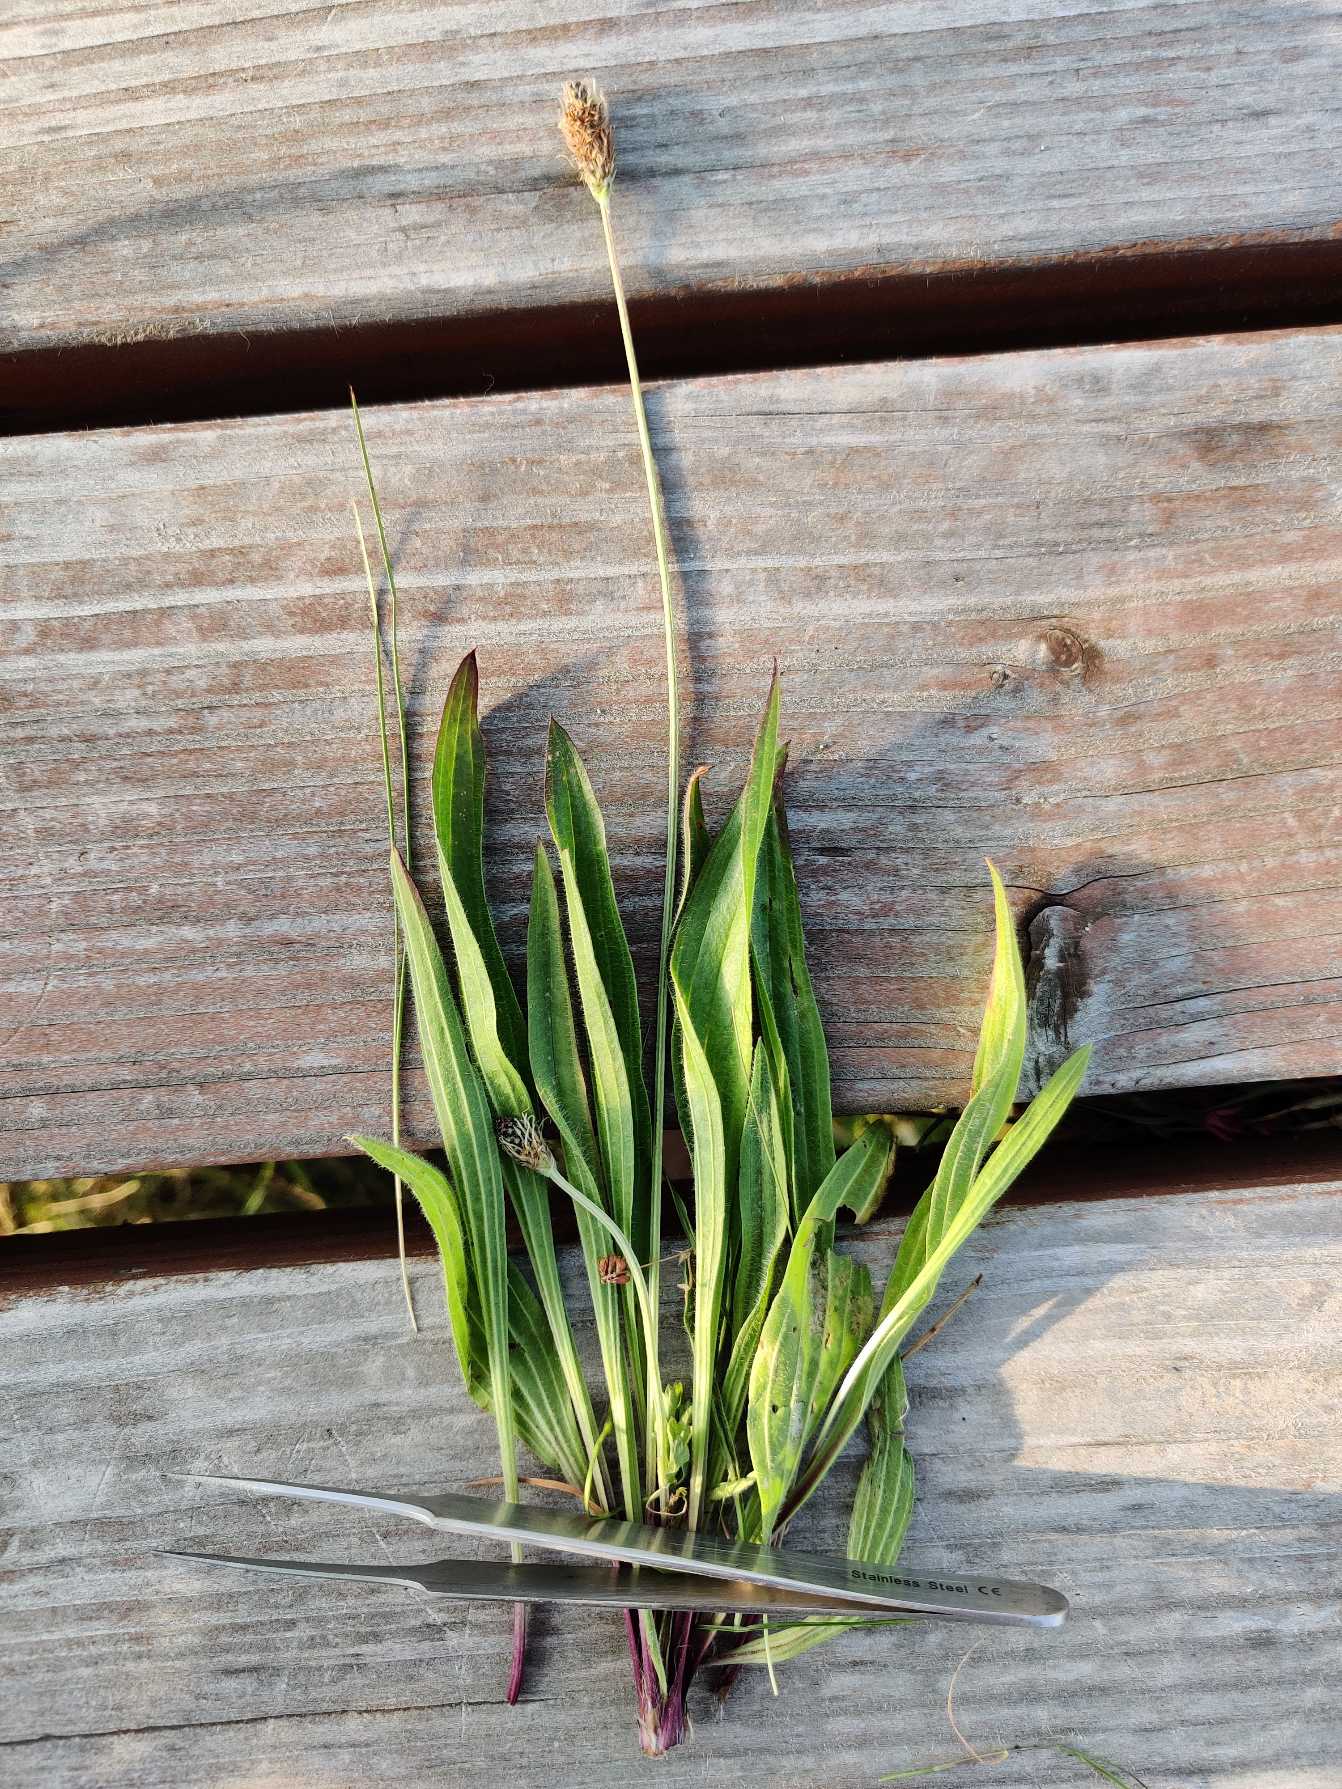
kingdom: Plantae
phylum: Tracheophyta
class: Magnoliopsida
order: Lamiales
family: Plantaginaceae
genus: Plantago
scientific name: Plantago lanceolata
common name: Lancet-vejbred
